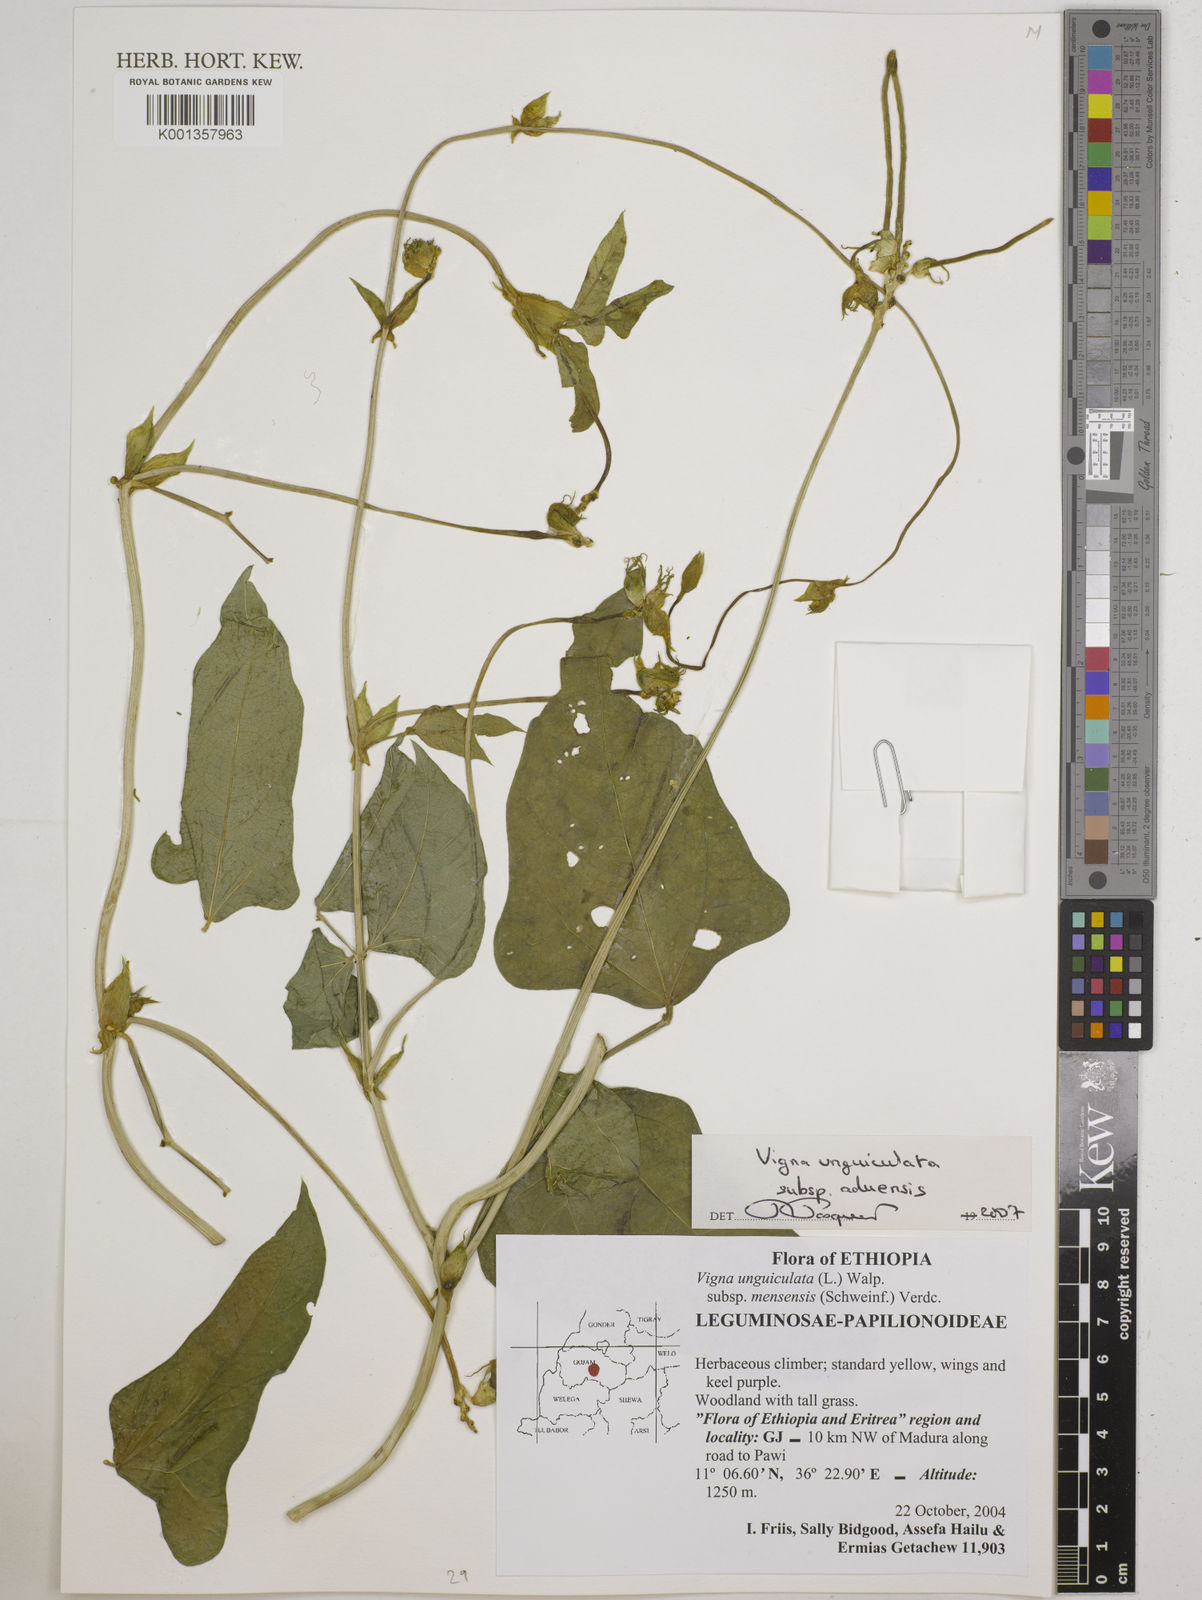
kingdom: Plantae
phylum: Tracheophyta
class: Magnoliopsida
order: Fabales
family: Fabaceae
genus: Vigna
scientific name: Vigna unguiculata
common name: Cowpea
